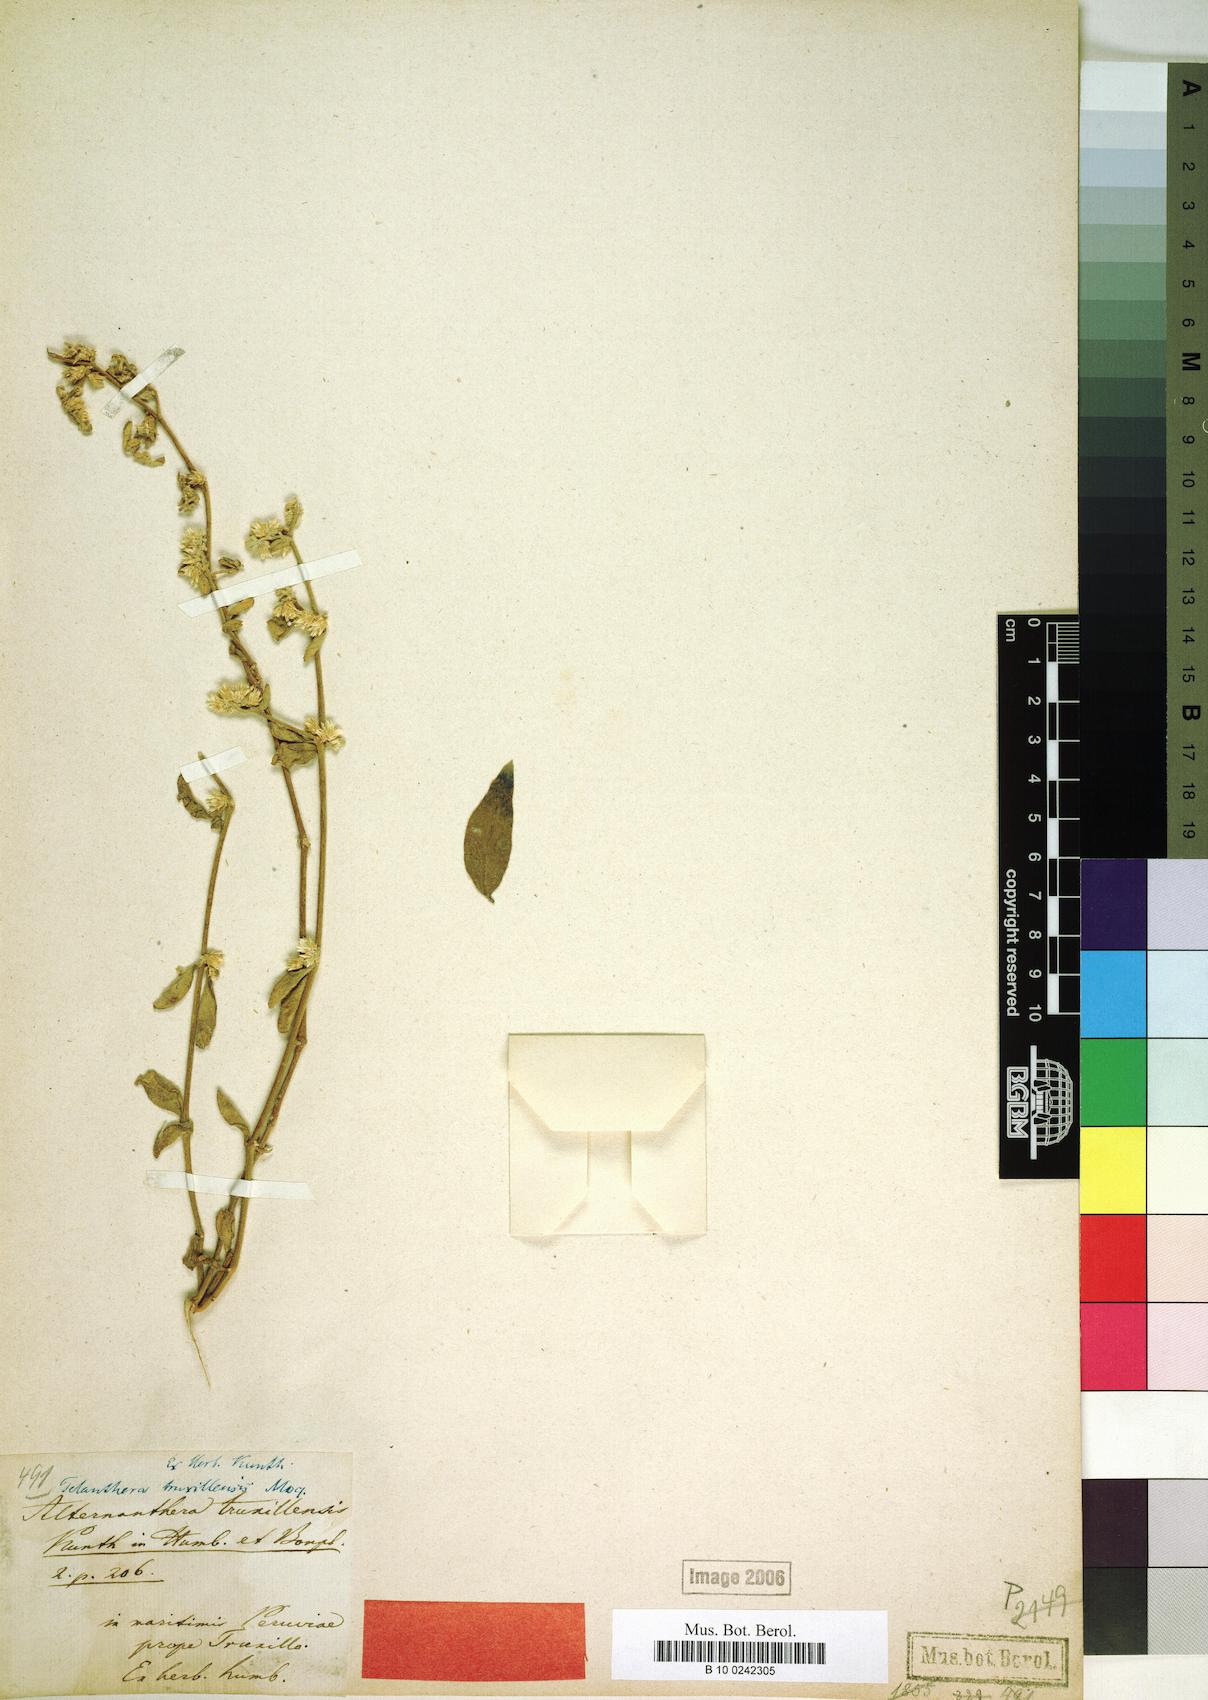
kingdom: Plantae
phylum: Tracheophyta
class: Magnoliopsida
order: Caryophyllales
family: Amaranthaceae
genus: Alternanthera
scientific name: Alternanthera truxillensis
